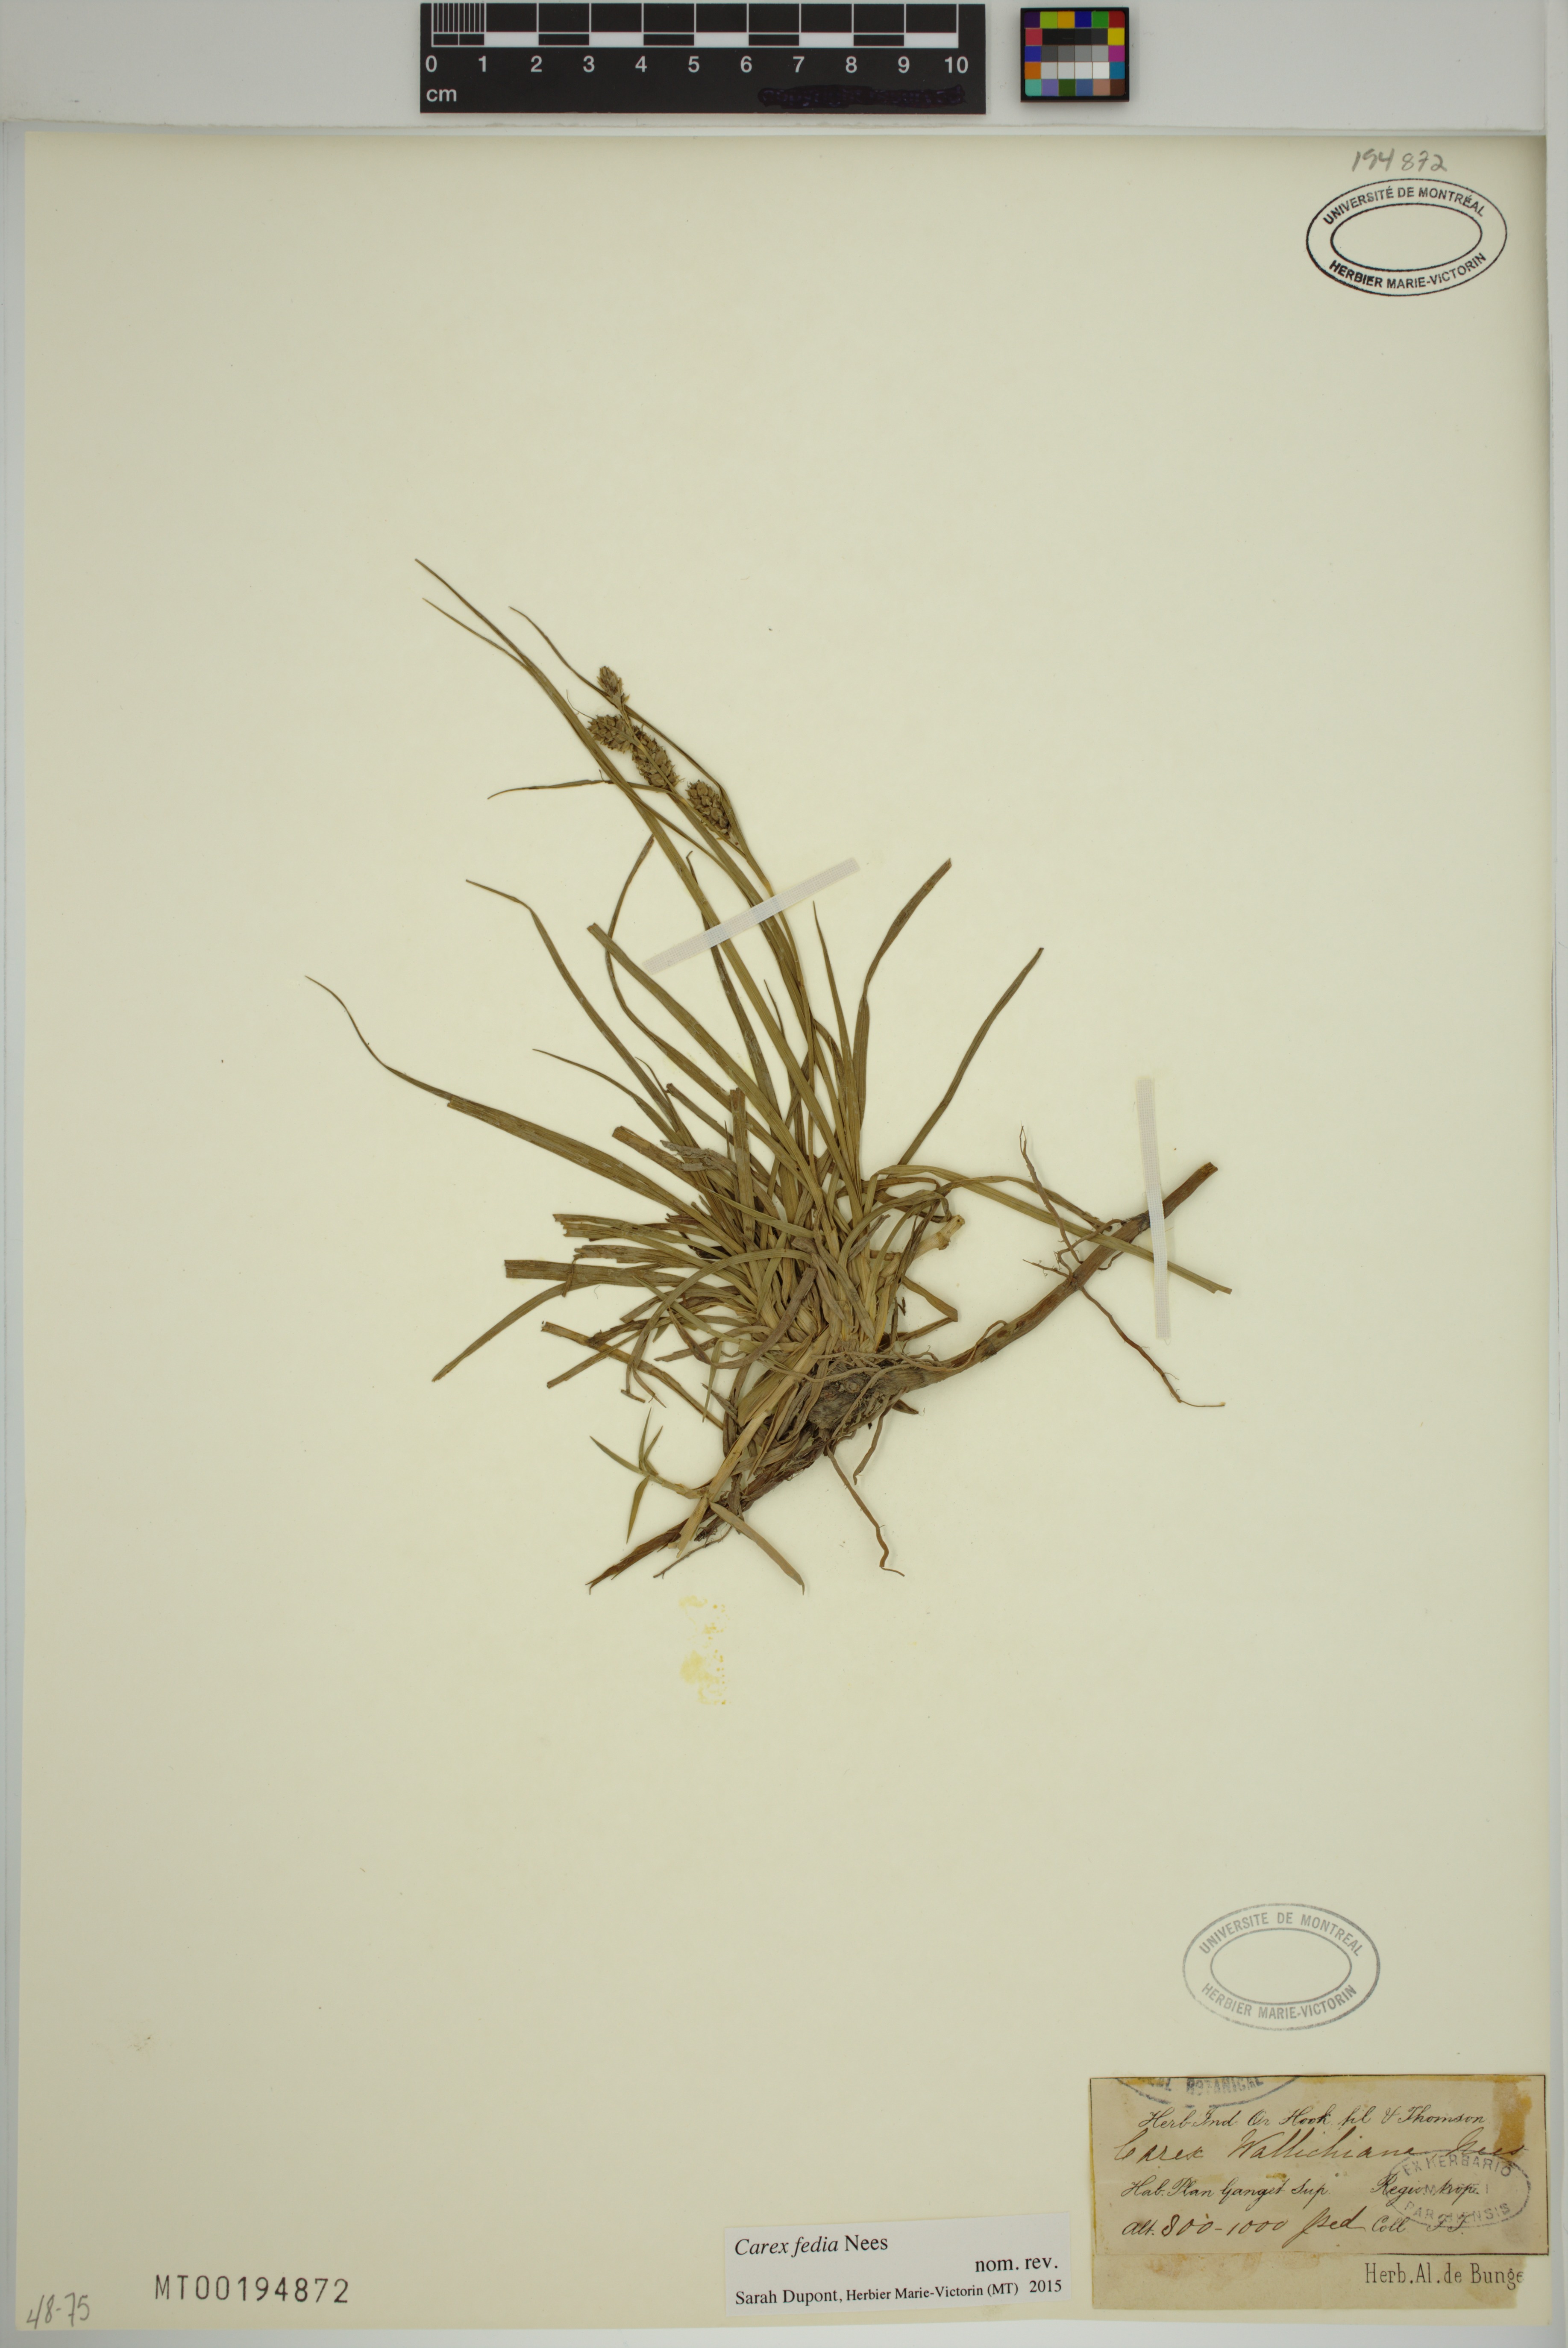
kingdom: Plantae
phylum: Tracheophyta
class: Liliopsida
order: Poales
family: Cyperaceae
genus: Carex
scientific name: Carex fedia
